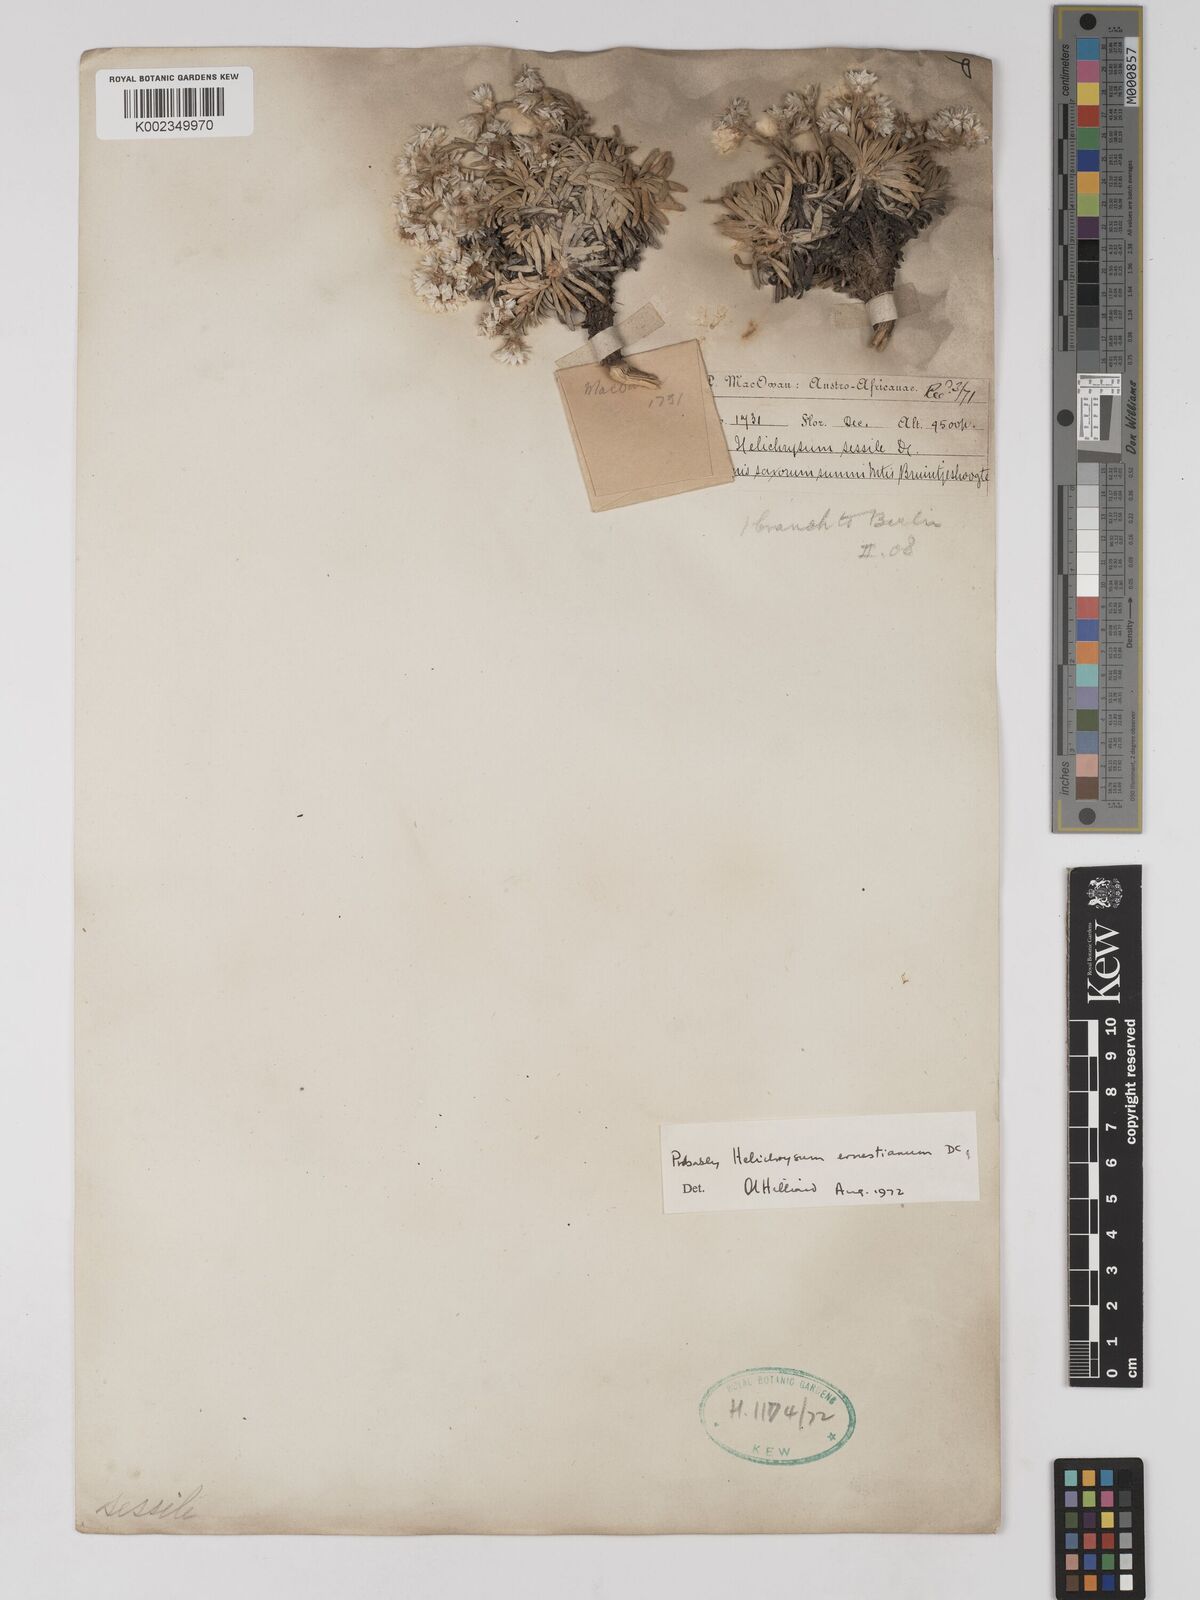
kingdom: Plantae
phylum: Tracheophyta
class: Magnoliopsida
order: Asterales
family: Asteraceae
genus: Helichrysum
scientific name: Helichrysum sessile
